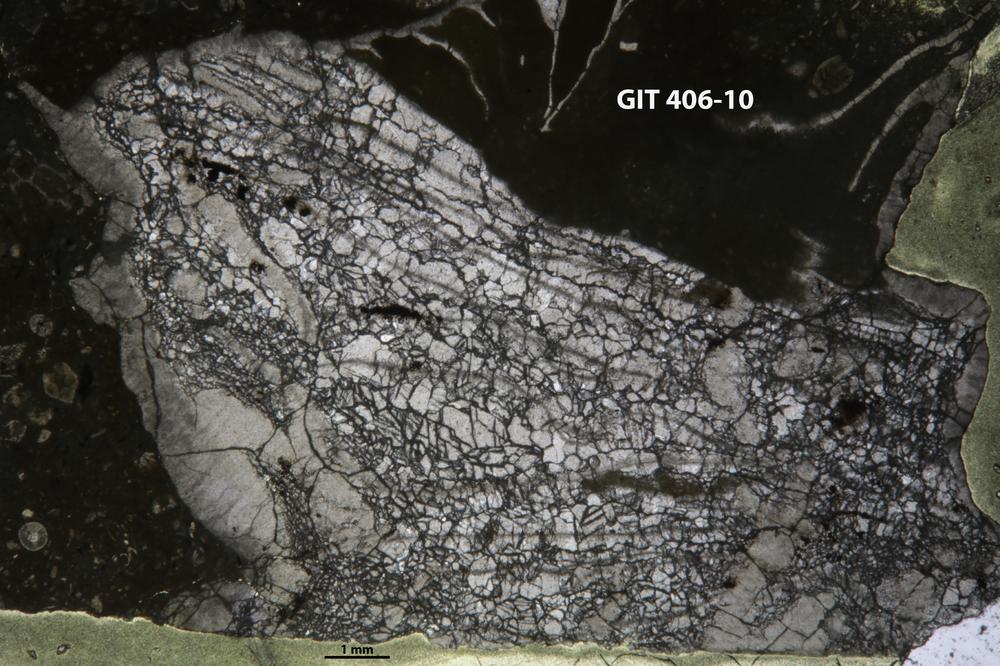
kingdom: Animalia
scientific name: Animalia
